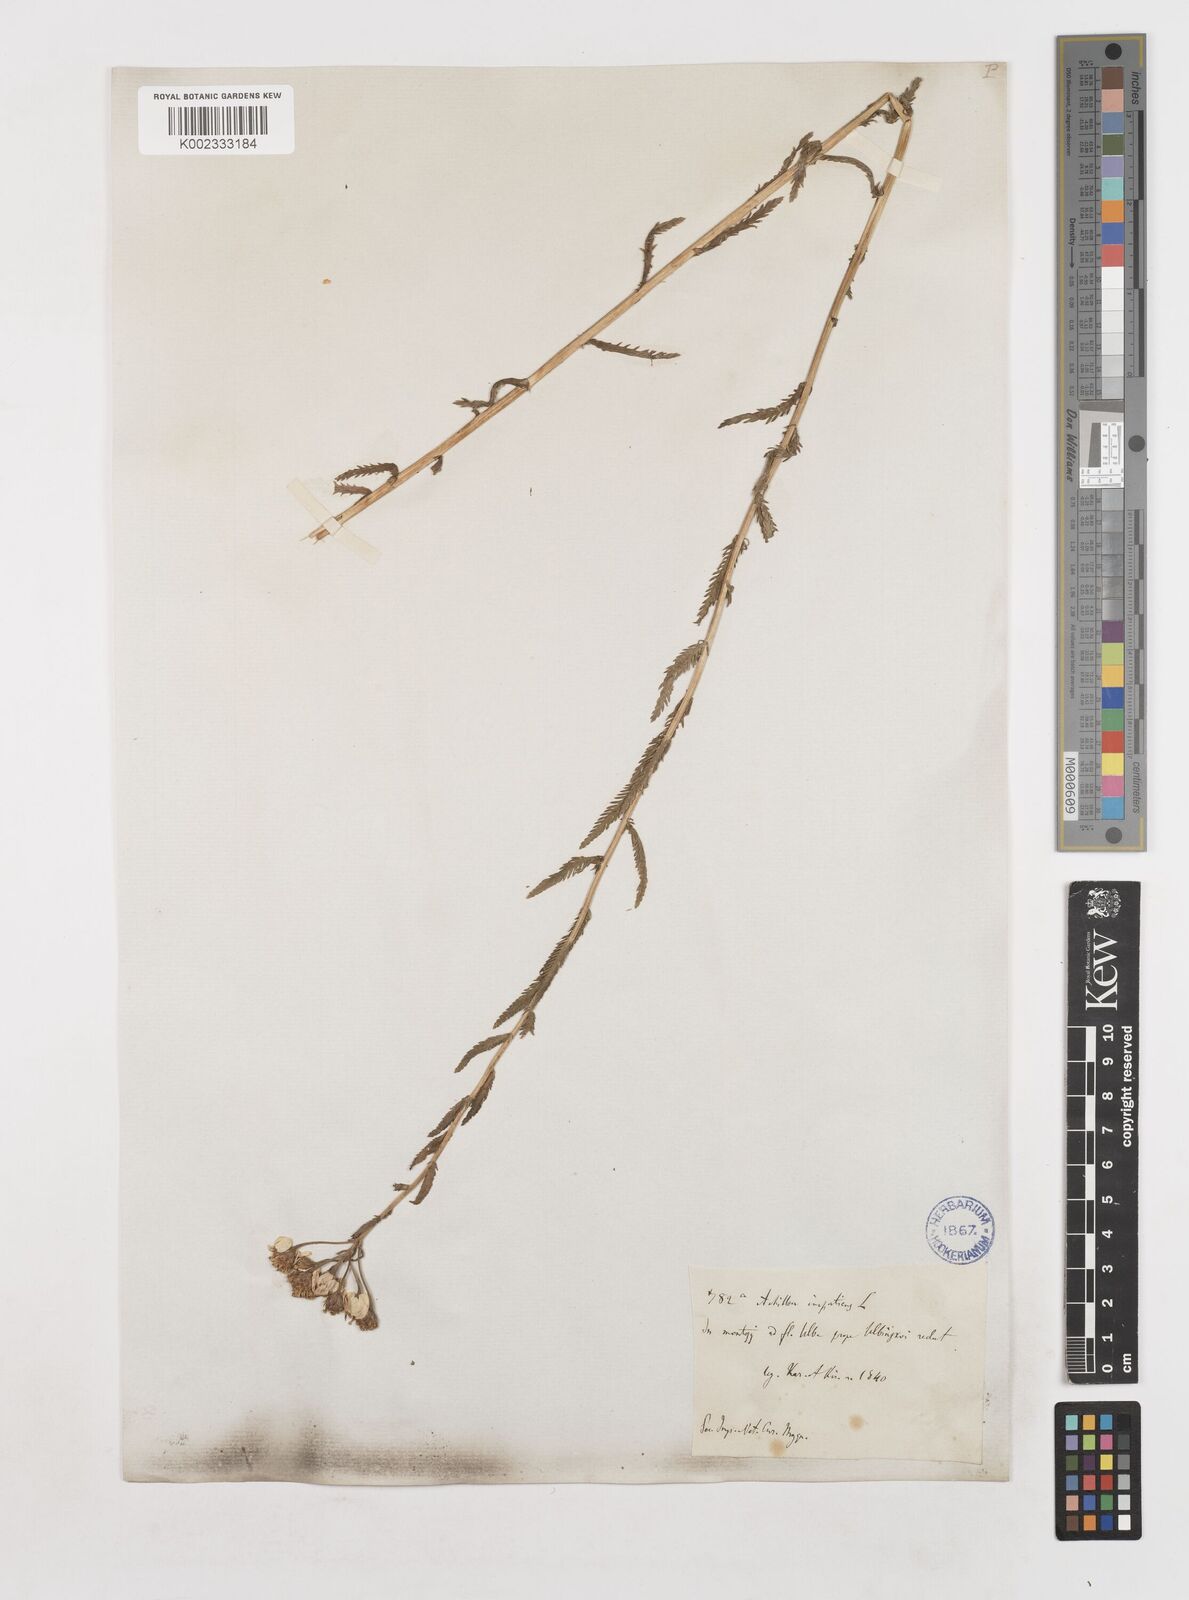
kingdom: Plantae
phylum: Tracheophyta
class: Magnoliopsida
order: Asterales
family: Asteraceae
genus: Achillea
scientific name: Achillea impatiens
